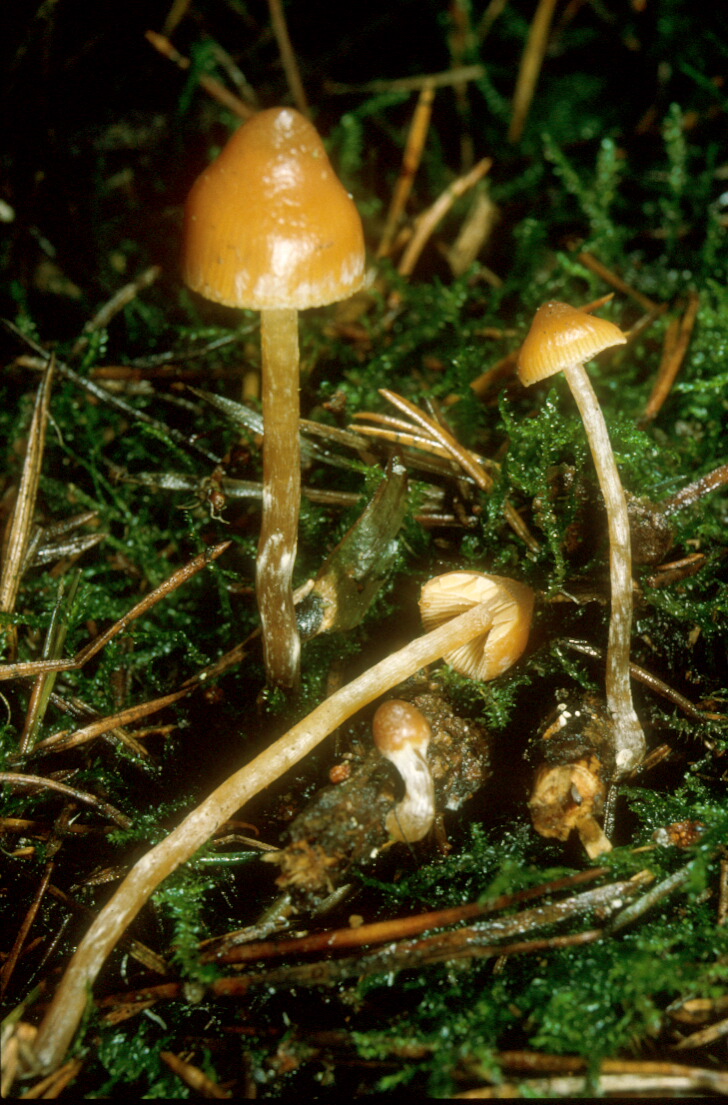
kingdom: Fungi
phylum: Basidiomycota
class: Agaricomycetes
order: Agaricales
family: Hymenogastraceae
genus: Galerina
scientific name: Galerina sideroides
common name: træflis-hjelmhat
